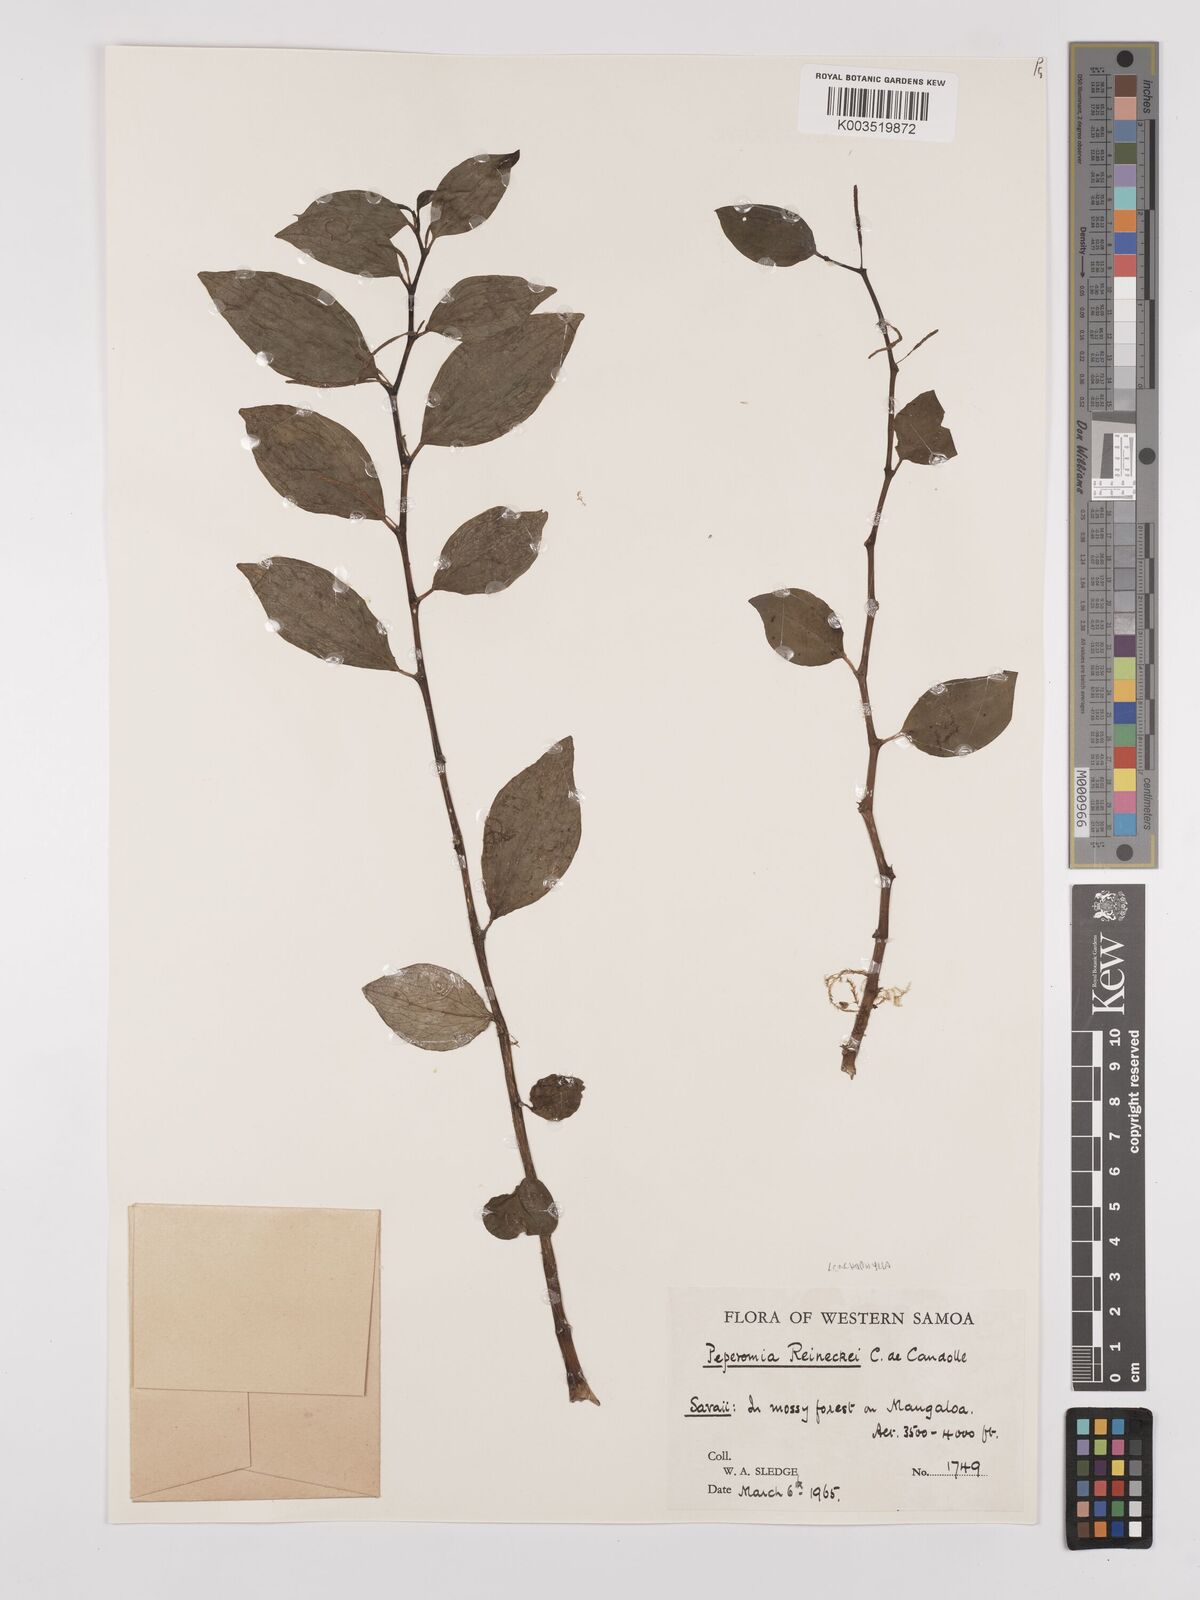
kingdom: Plantae
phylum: Tracheophyta
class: Magnoliopsida
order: Piperales
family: Piperaceae
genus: Peperomia
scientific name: Peperomia reineckei
